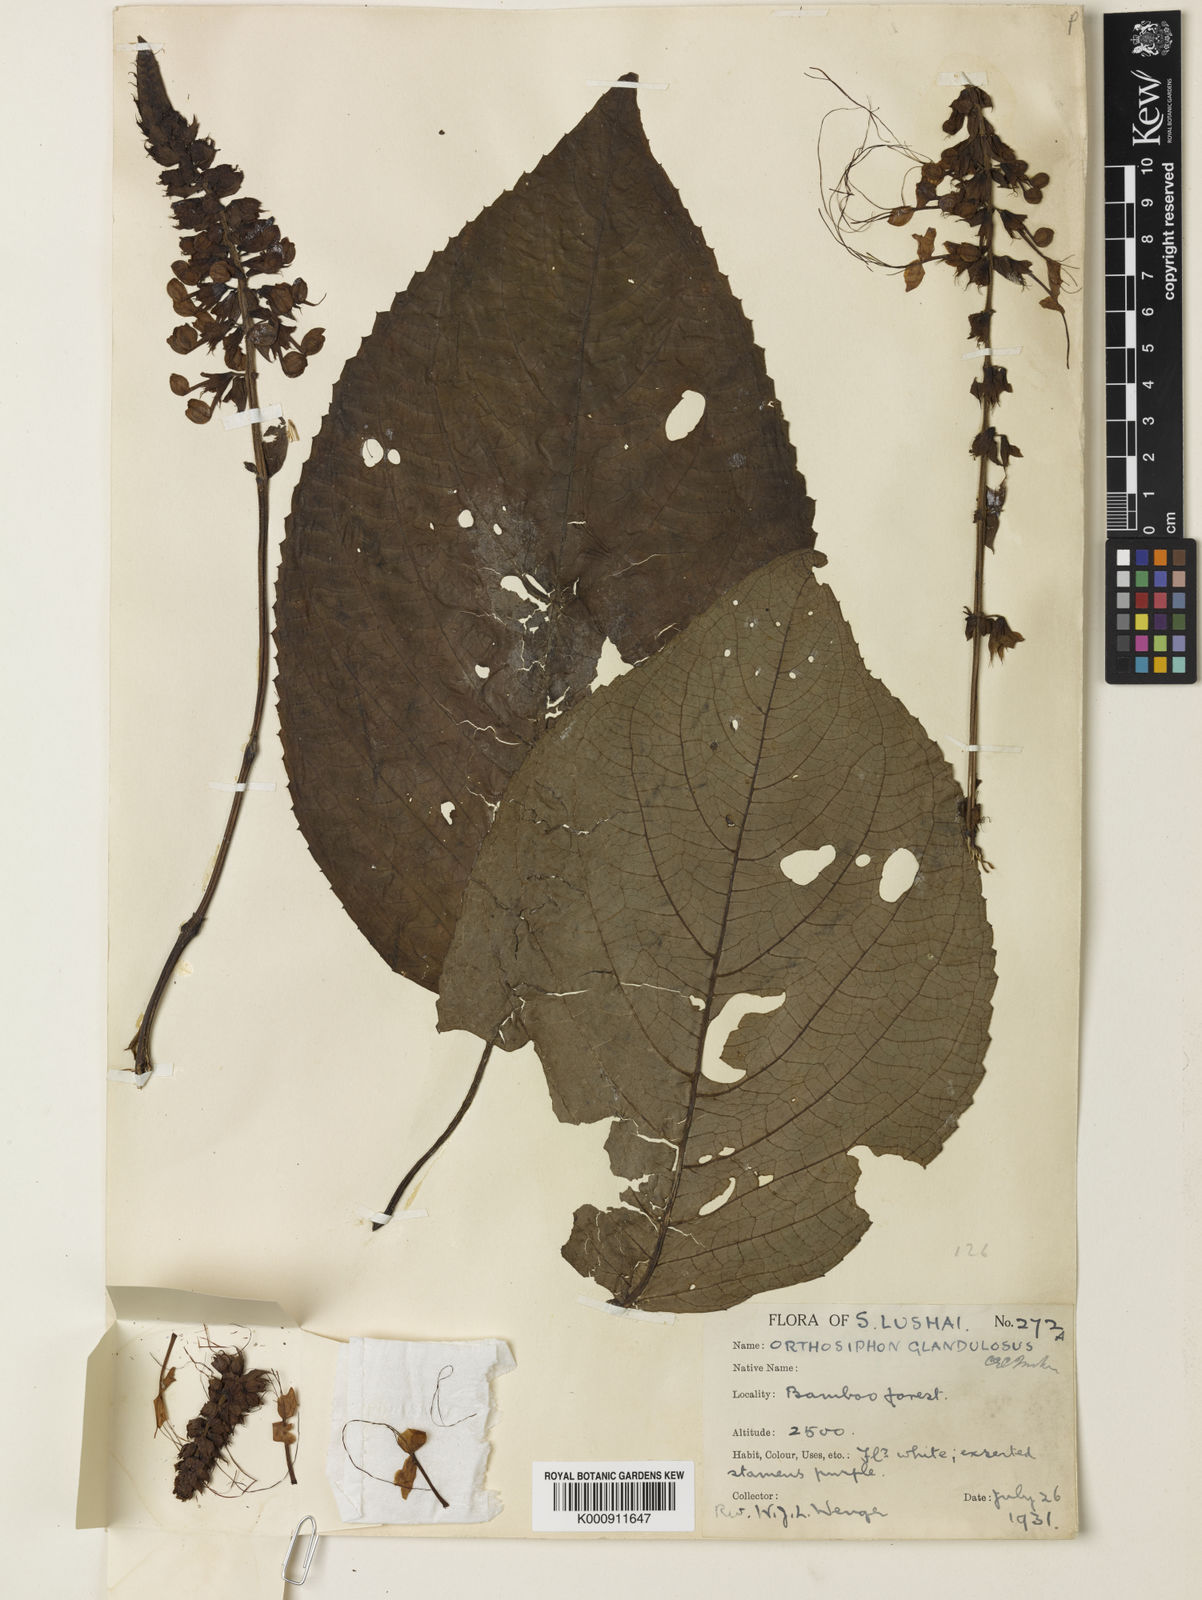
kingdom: Plantae
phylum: Tracheophyta
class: Magnoliopsida
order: Lamiales
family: Lamiaceae
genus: Orthosiphon
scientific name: Orthosiphon glandulosus
